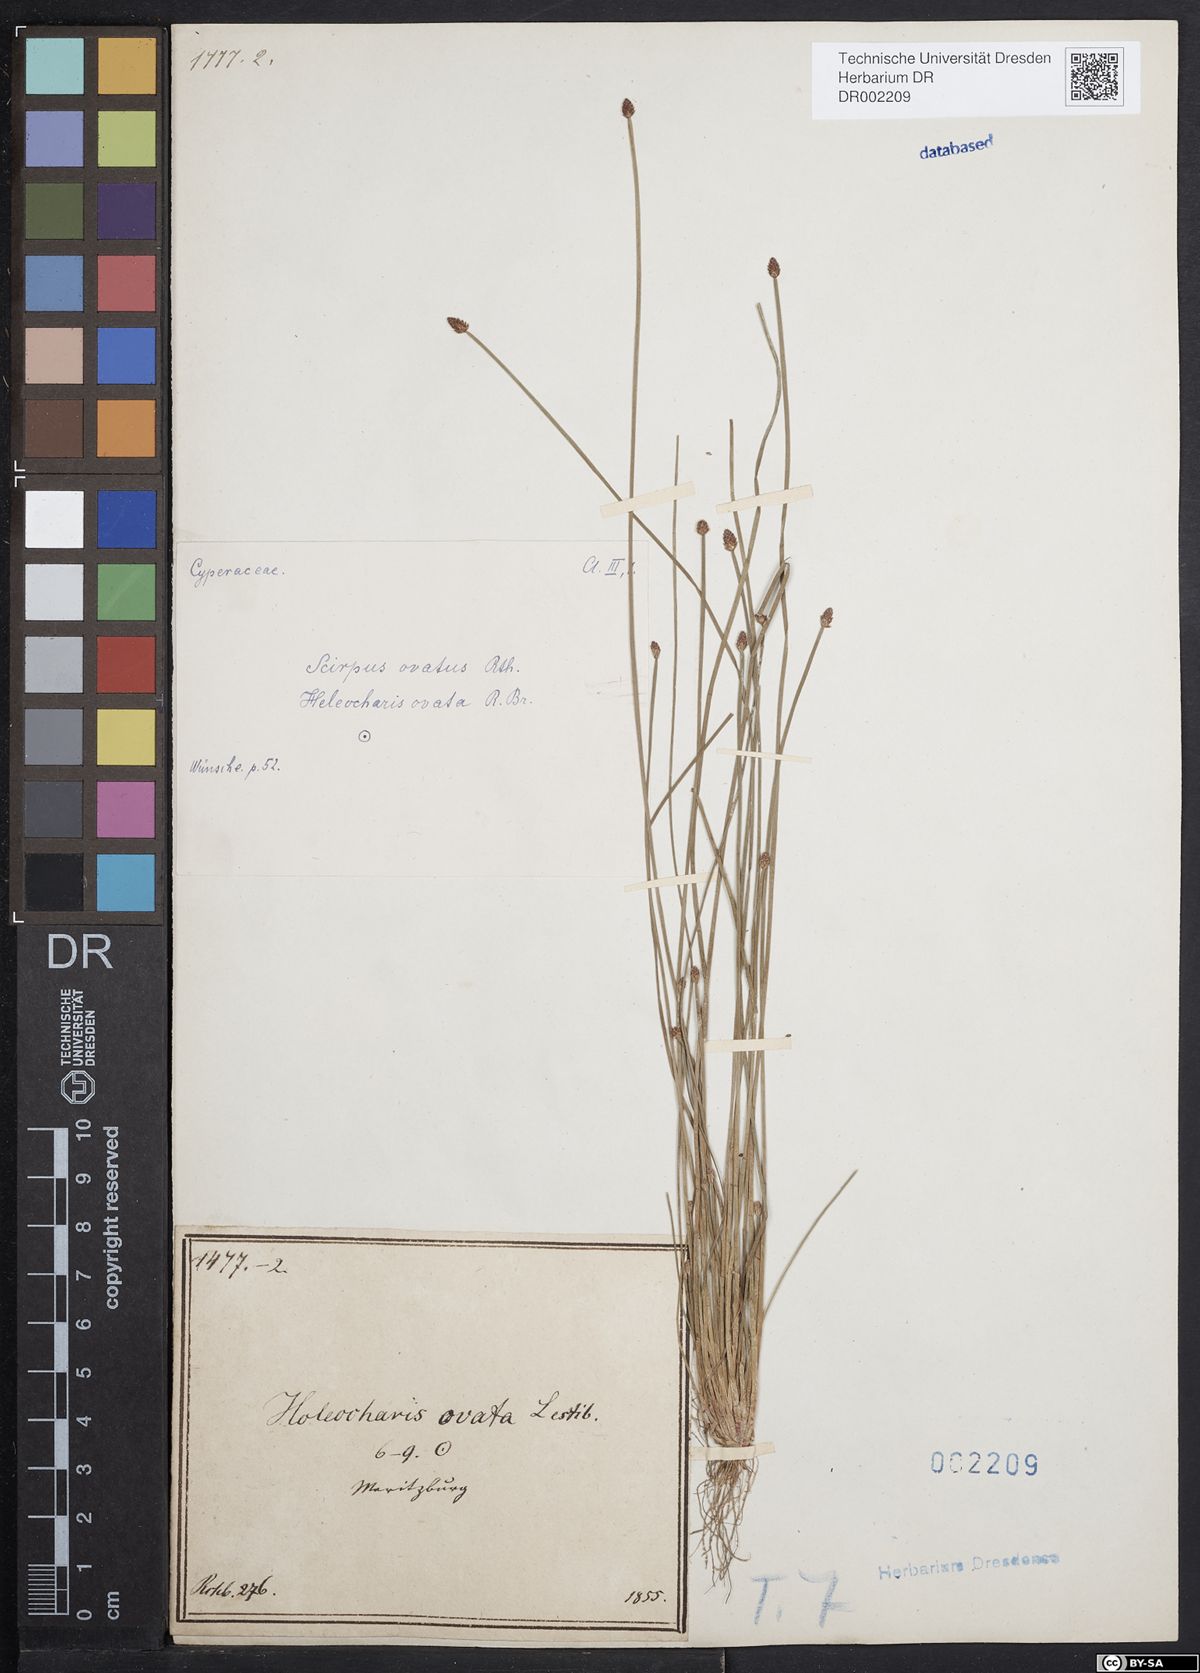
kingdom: Plantae
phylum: Tracheophyta
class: Liliopsida
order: Poales
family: Cyperaceae
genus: Eleocharis
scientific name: Eleocharis ovata
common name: Oval spike-rush
